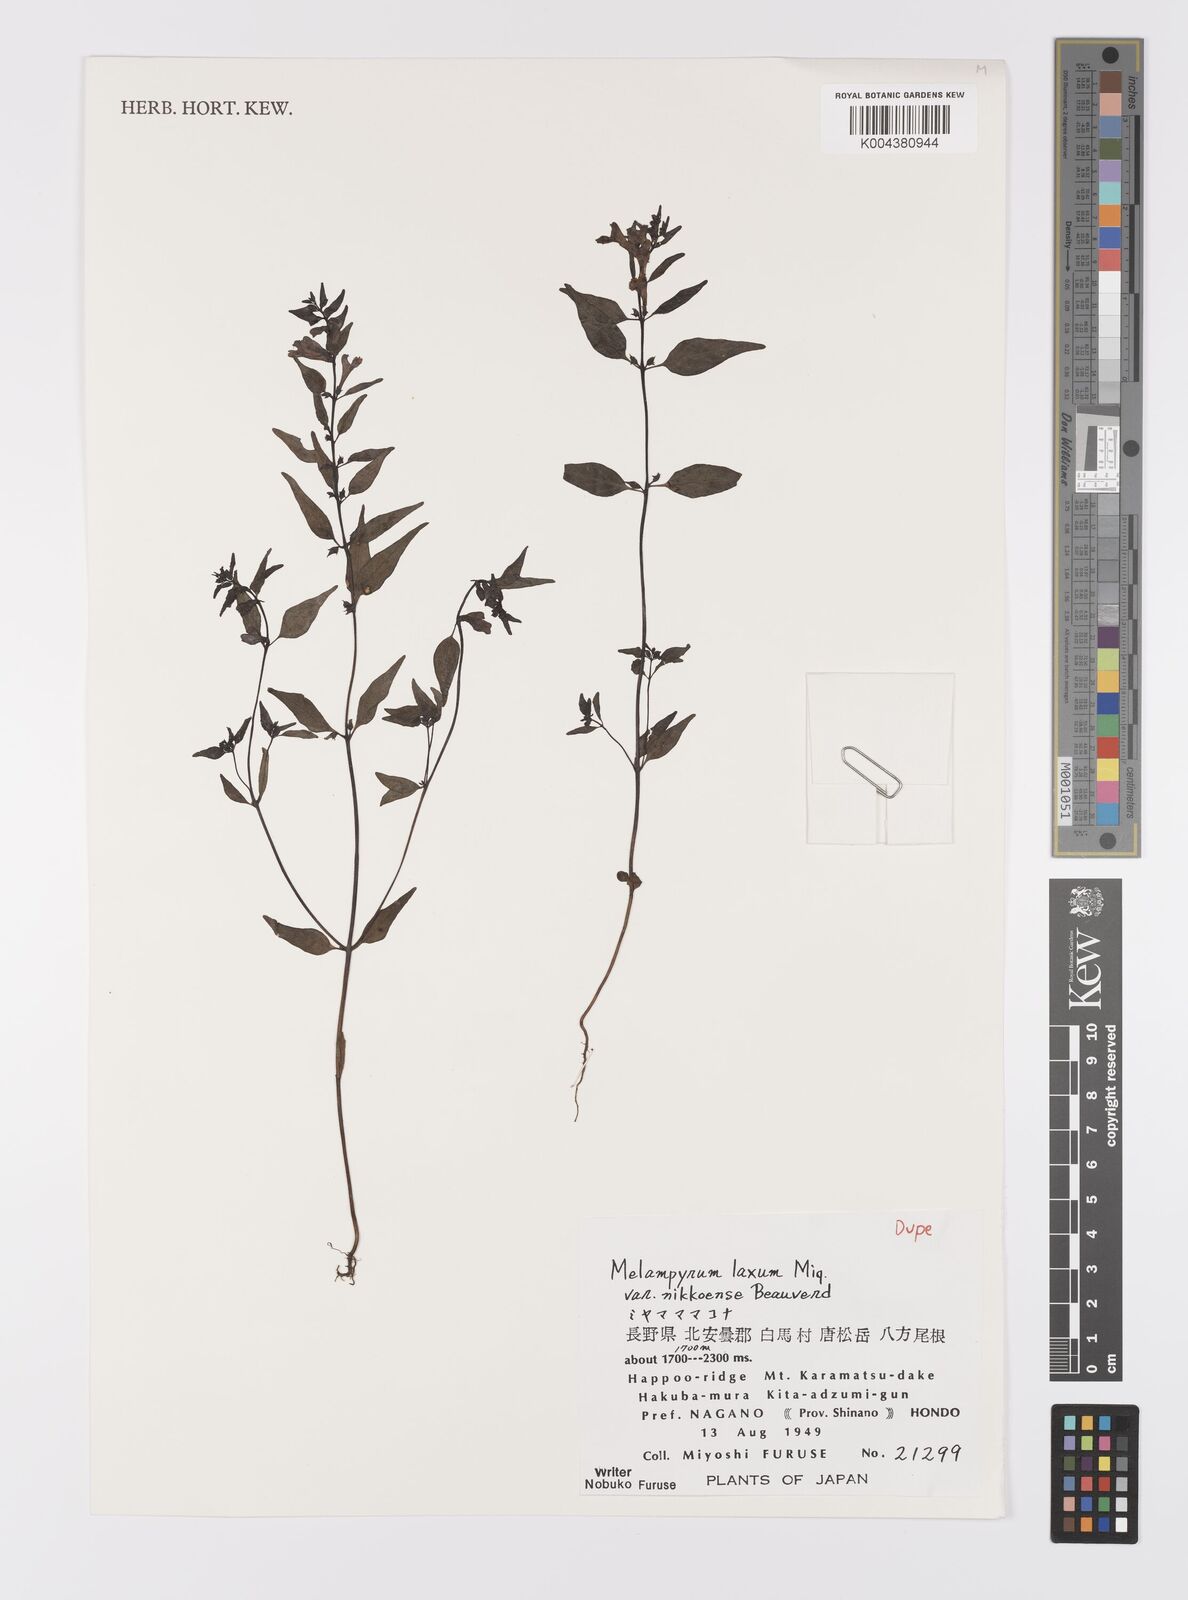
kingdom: Plantae
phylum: Tracheophyta
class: Magnoliopsida
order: Lamiales
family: Orobanchaceae
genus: Melampyrum
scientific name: Melampyrum laxum
